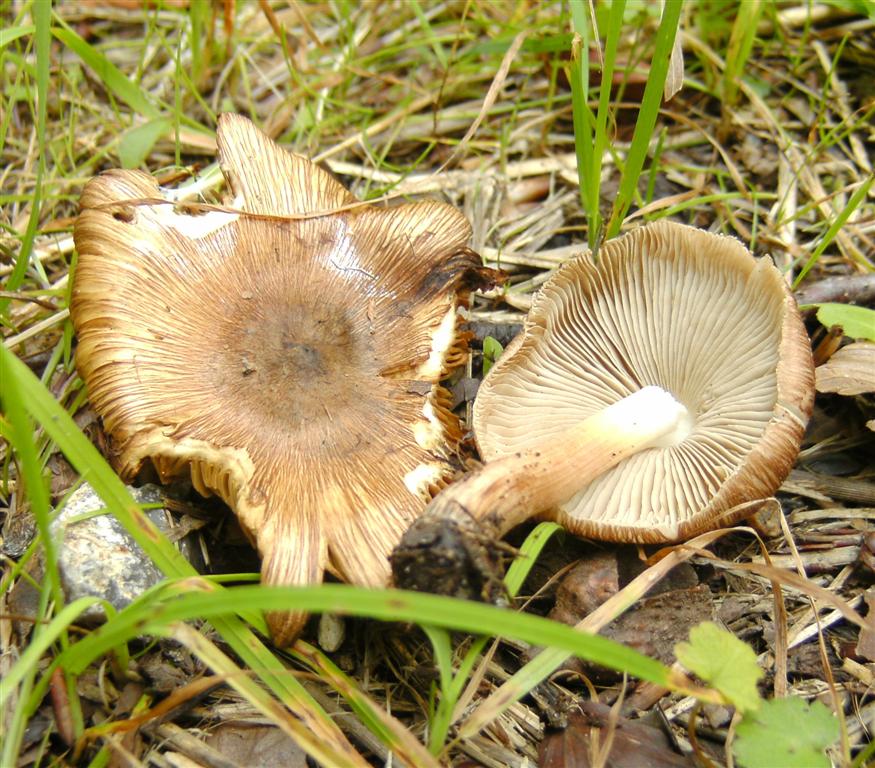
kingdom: Fungi
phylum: Basidiomycota
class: Agaricomycetes
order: Agaricales
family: Inocybaceae
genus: Pseudosperma
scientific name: Pseudosperma rimosum
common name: gulbladet trævlhat
